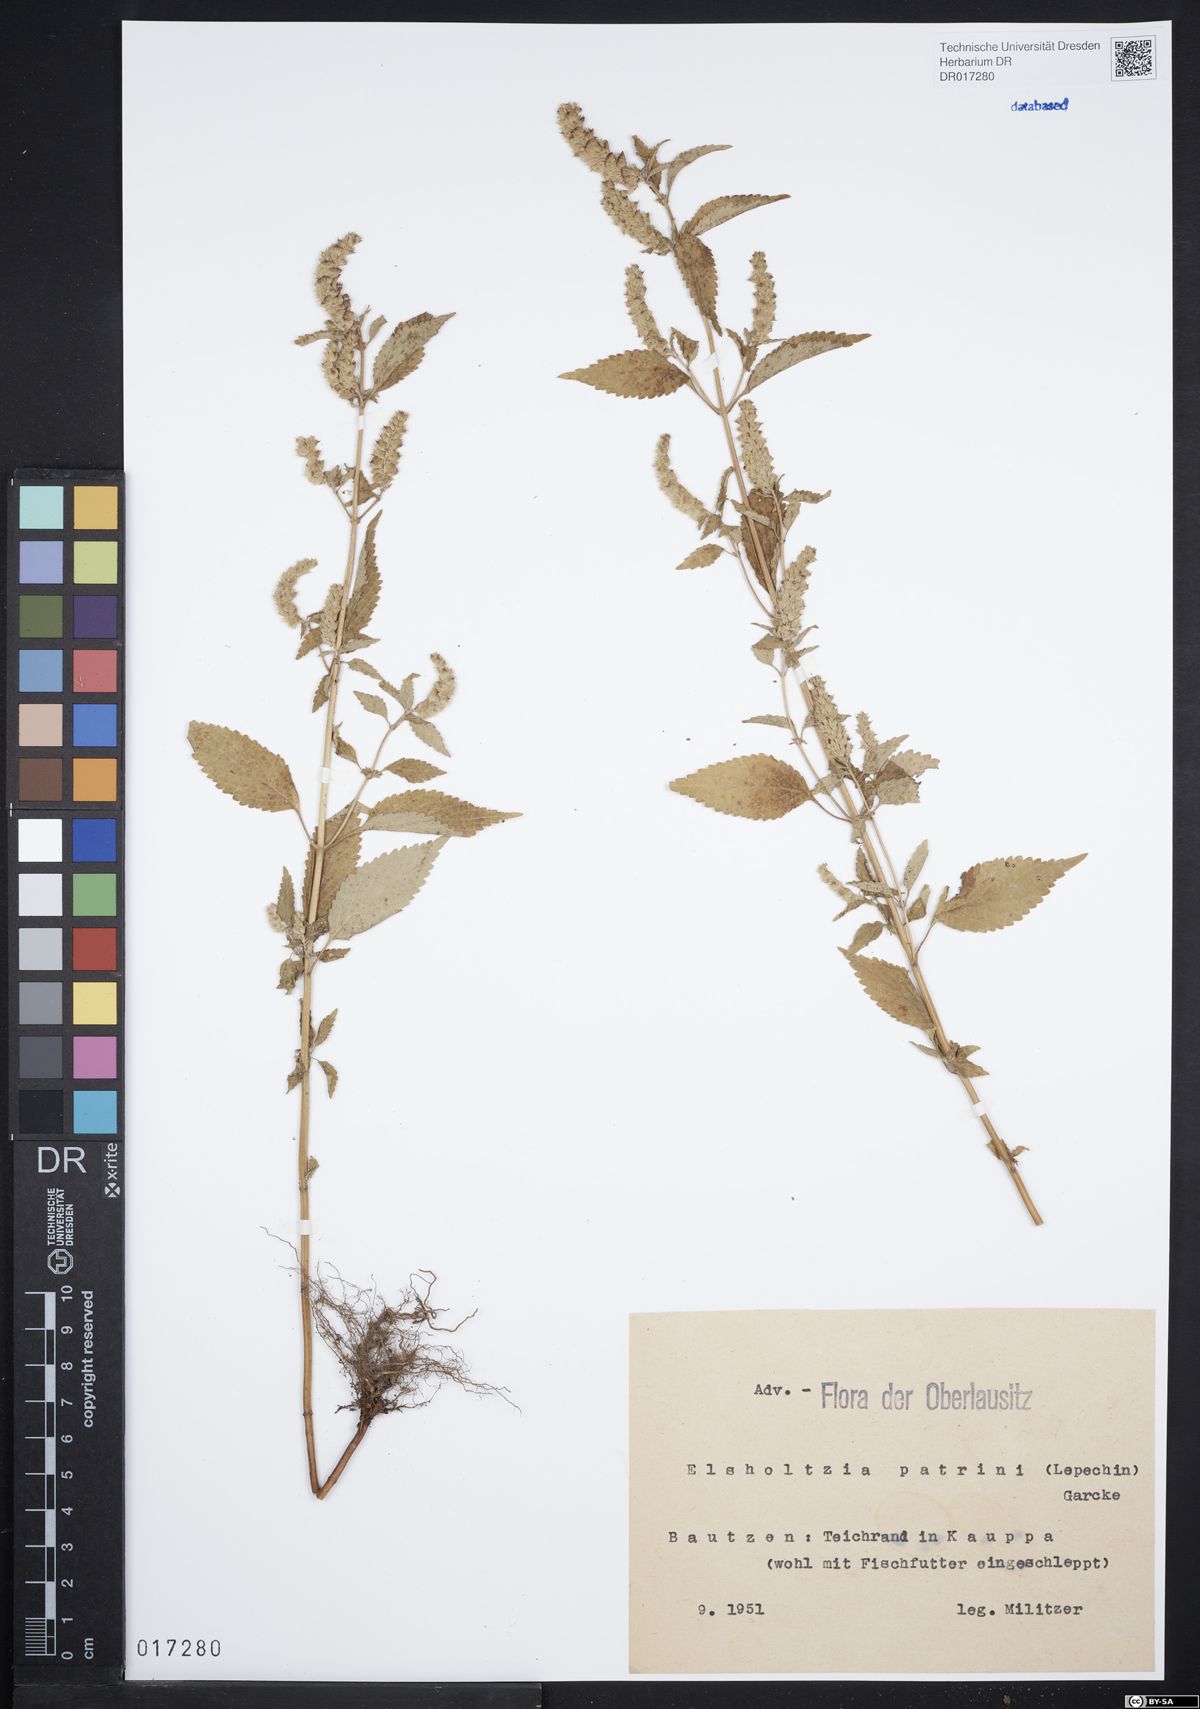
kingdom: Plantae
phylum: Tracheophyta
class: Magnoliopsida
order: Lamiales
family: Lamiaceae
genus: Elsholtzia
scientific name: Elsholtzia ciliata
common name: Ciliate elsholtzia
